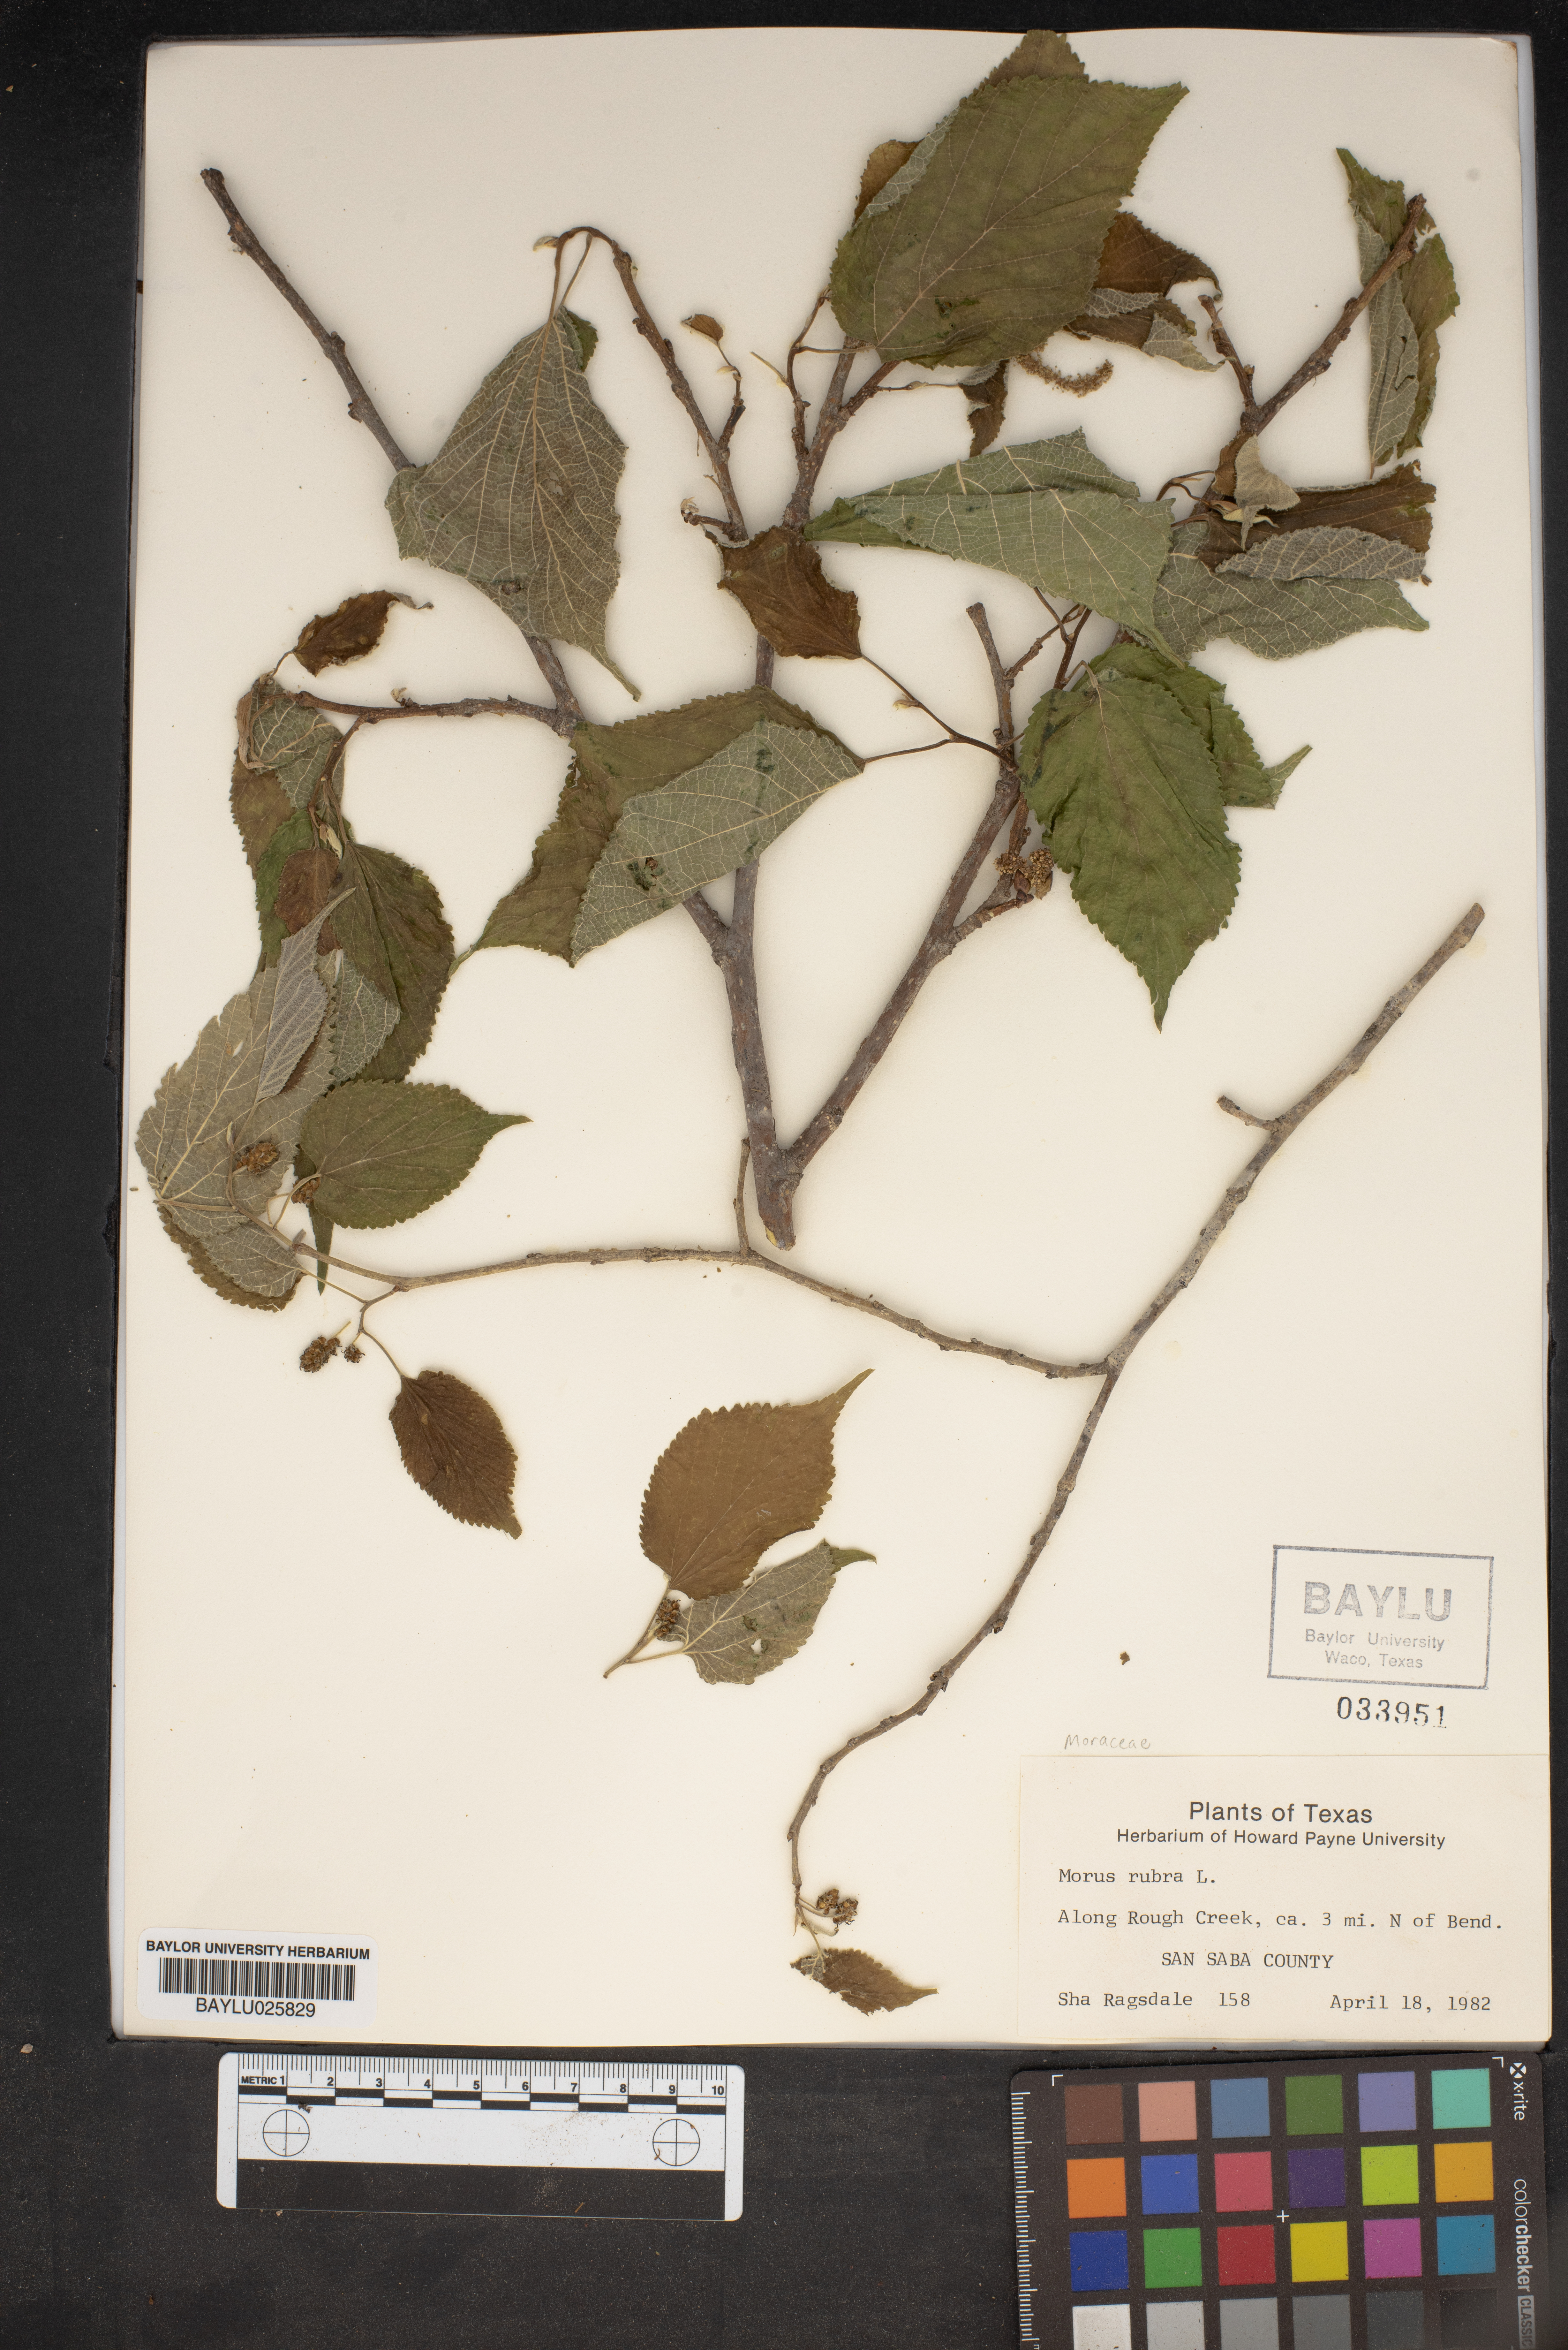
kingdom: Plantae
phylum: Tracheophyta
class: Magnoliopsida
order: Rosales
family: Moraceae
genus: Morus
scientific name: Morus rubra
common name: Red mulberry
